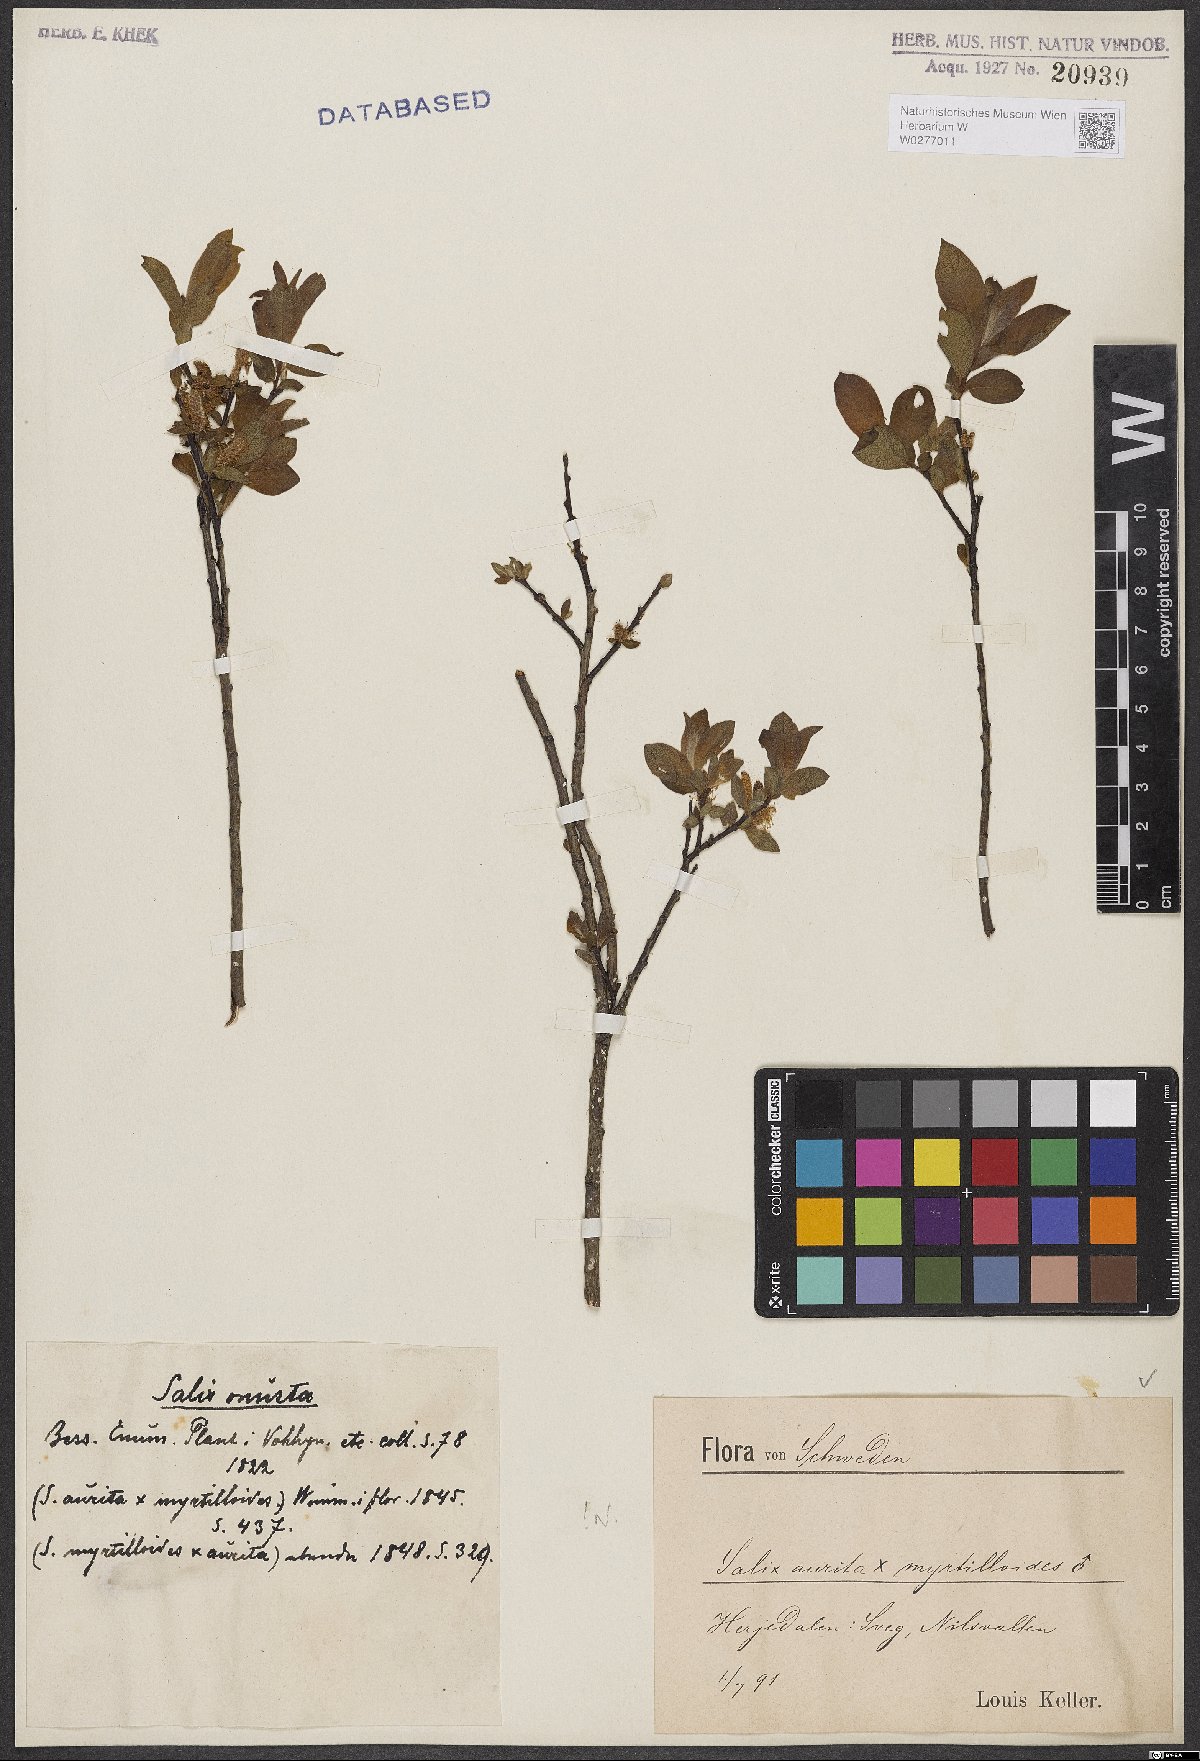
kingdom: Plantae
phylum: Tracheophyta
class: Magnoliopsida
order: Malpighiales
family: Salicaceae
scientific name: Salicaceae
